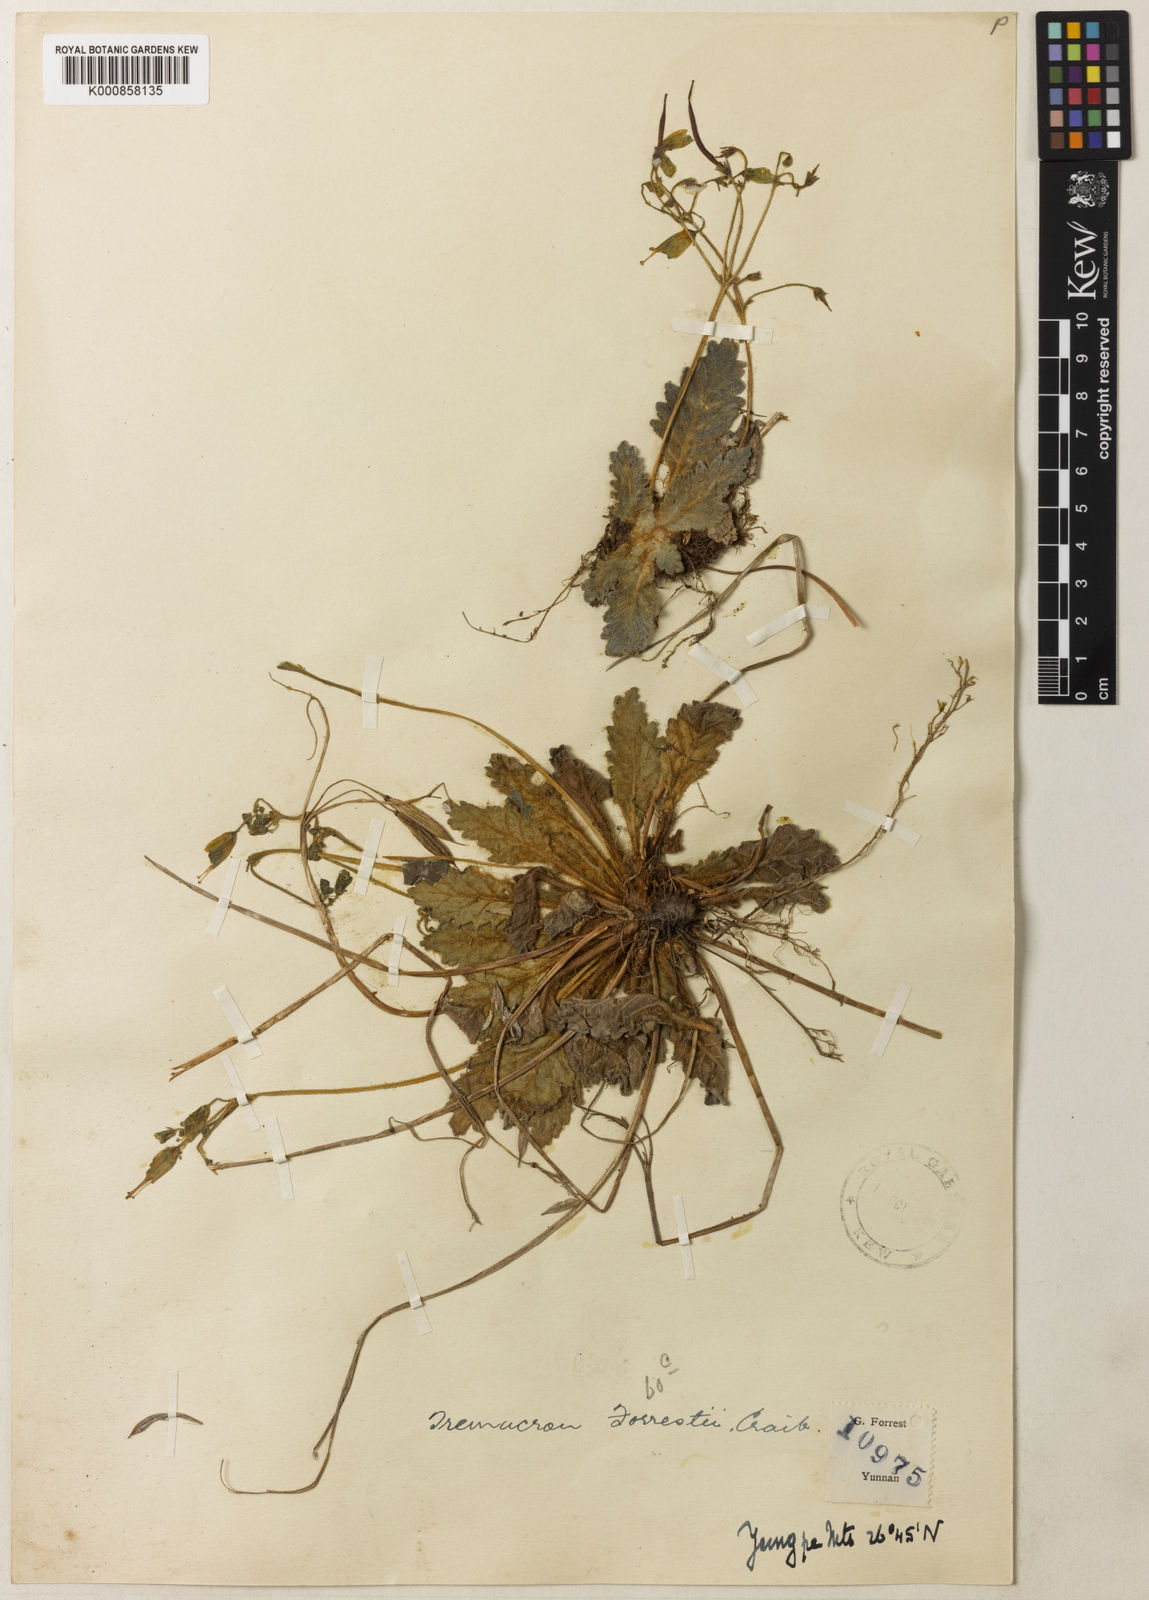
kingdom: Plantae
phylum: Tracheophyta
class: Magnoliopsida
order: Lamiales
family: Gesneriaceae
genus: Oreocharis
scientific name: Oreocharis
